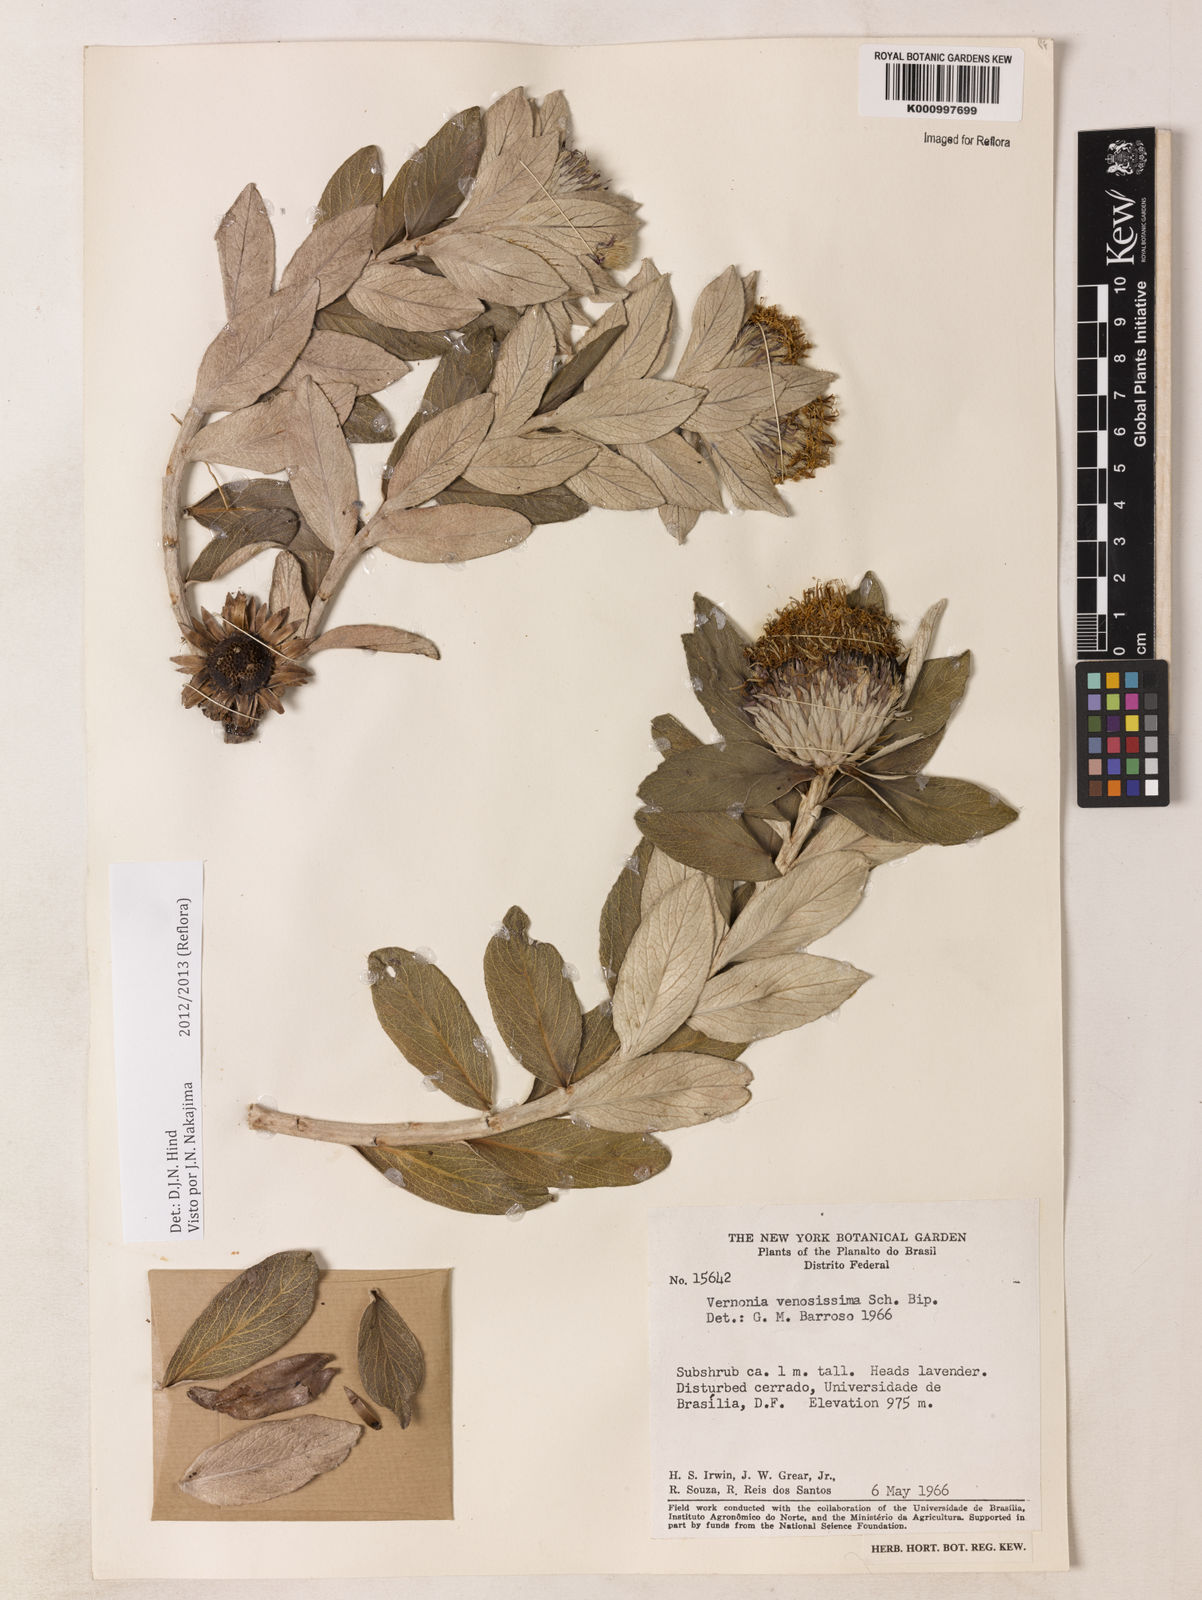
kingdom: Plantae
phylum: Tracheophyta
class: Magnoliopsida
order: Asterales
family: Asteraceae
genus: Lessingianthus
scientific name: Lessingianthus venosissimus
